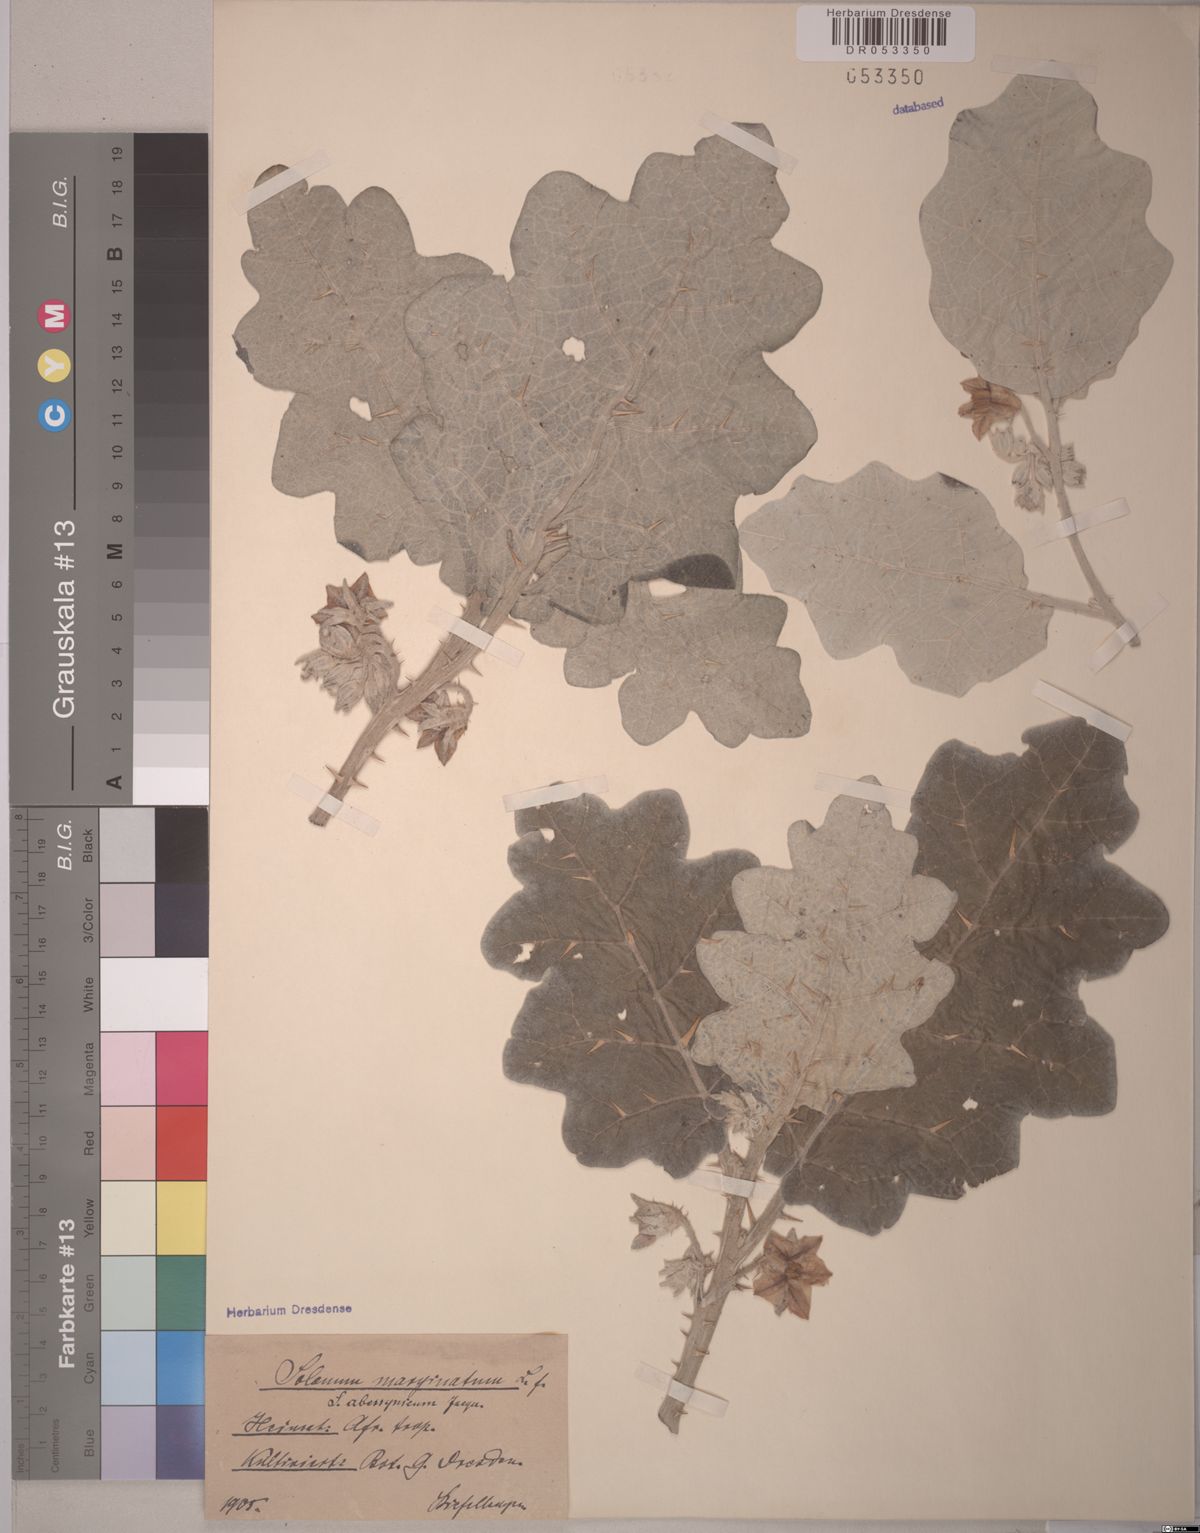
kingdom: Plantae
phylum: Tracheophyta
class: Magnoliopsida
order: Solanales
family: Solanaceae
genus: Solanum
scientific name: Solanum marginatum
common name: Purple african nightshade
